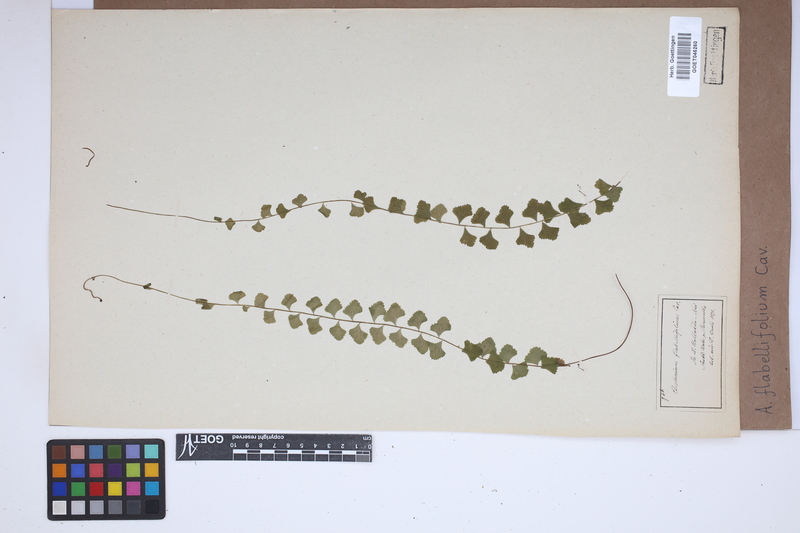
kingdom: Plantae
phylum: Tracheophyta
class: Polypodiopsida
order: Polypodiales
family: Aspleniaceae
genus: Asplenium
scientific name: Asplenium flabellifolium
